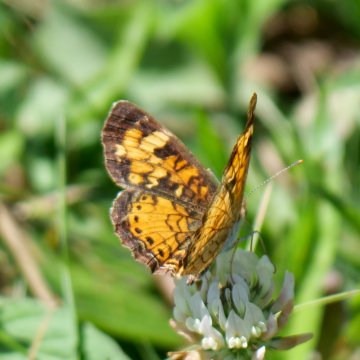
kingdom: Animalia
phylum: Arthropoda
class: Insecta
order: Lepidoptera
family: Nymphalidae
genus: Phyciodes
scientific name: Phyciodes tharos
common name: Northern Crescent
